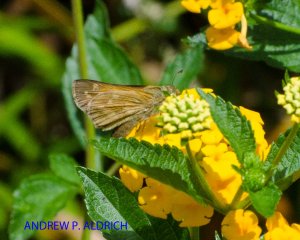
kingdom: Animalia
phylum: Arthropoda
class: Insecta
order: Lepidoptera
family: Hesperiidae
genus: Atalopedes
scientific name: Atalopedes campestris
